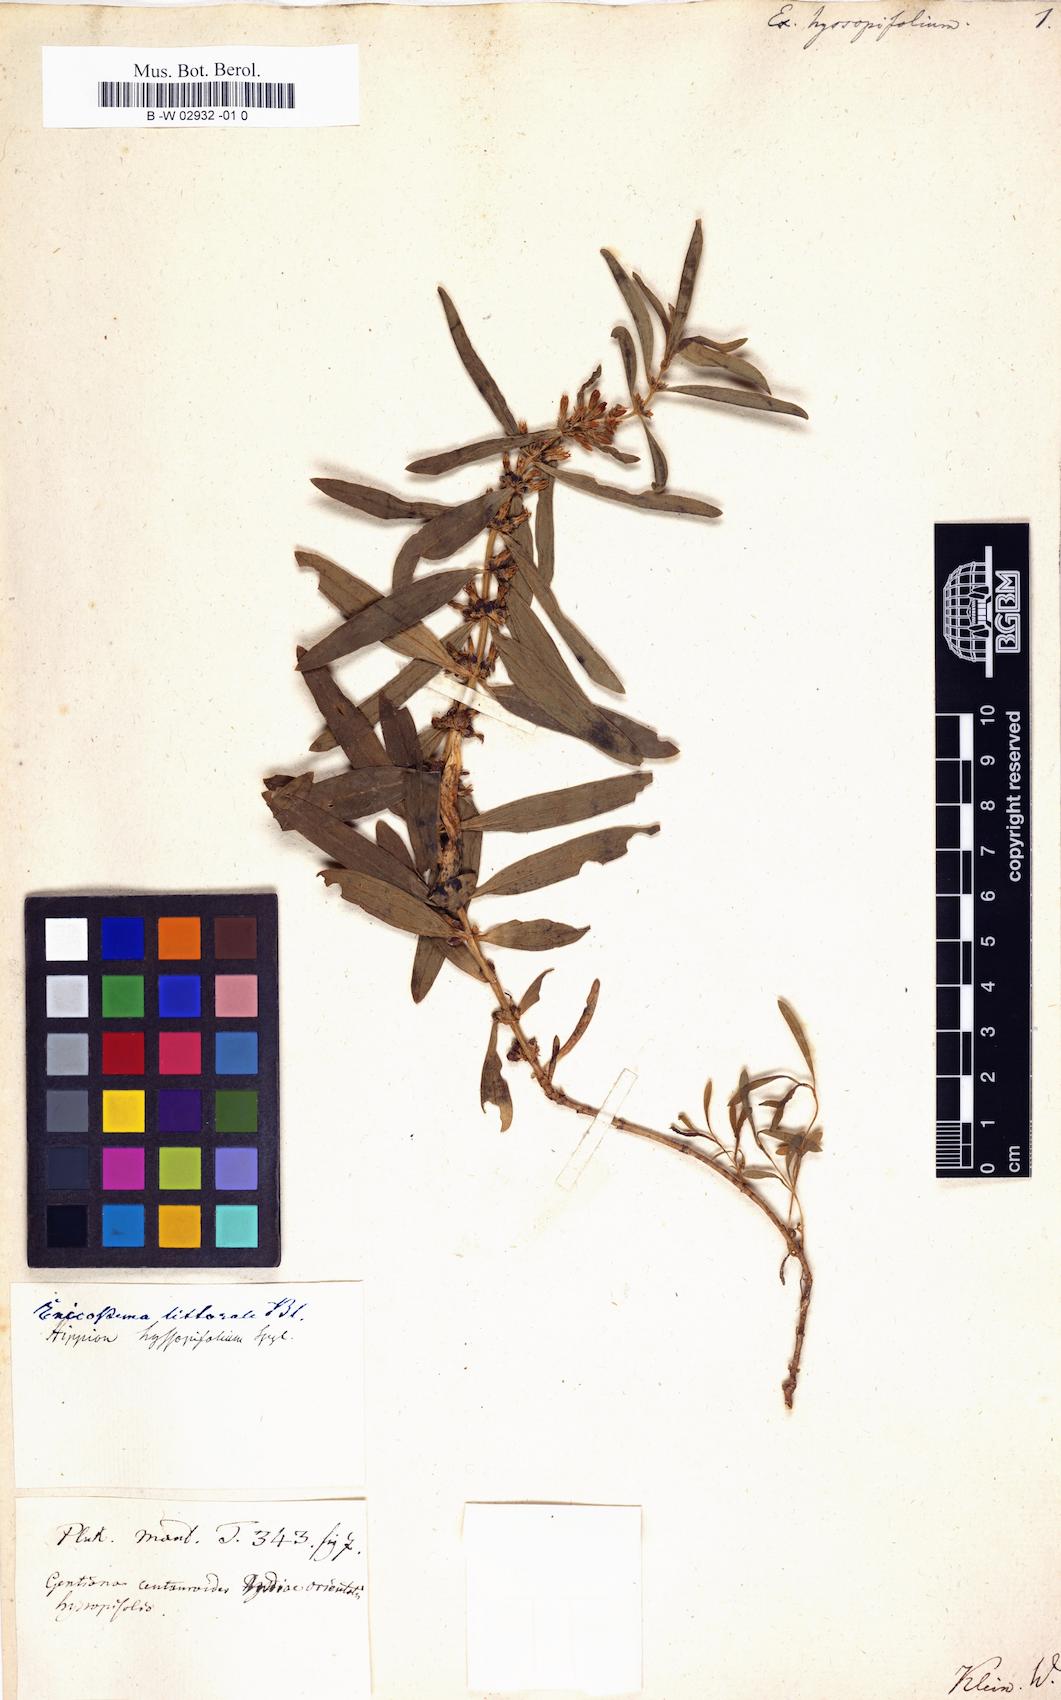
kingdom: Plantae
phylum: Tracheophyta
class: Magnoliopsida
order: Gentianales
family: Gentianaceae
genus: Enicostema
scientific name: Enicostema axillare
